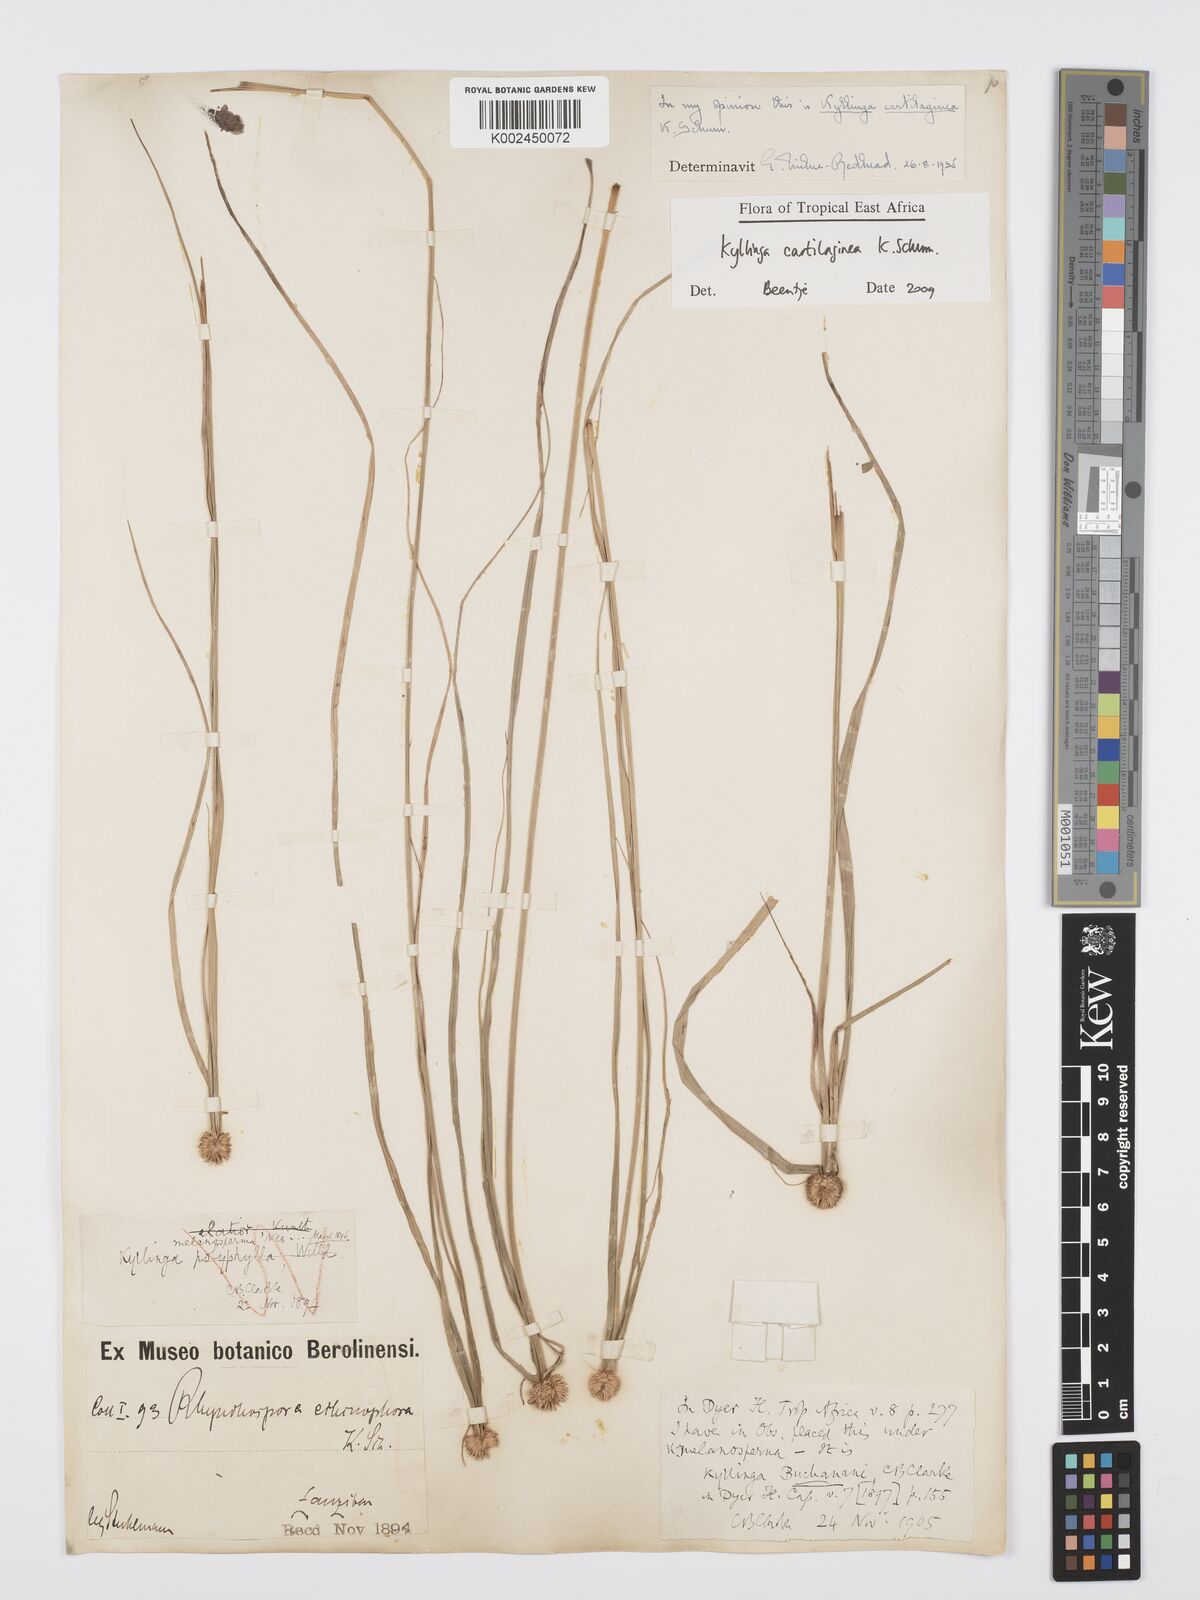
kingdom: Plantae
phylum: Tracheophyta
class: Liliopsida
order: Poales
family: Cyperaceae
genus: Cyperus
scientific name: Cyperus cartilagineus
